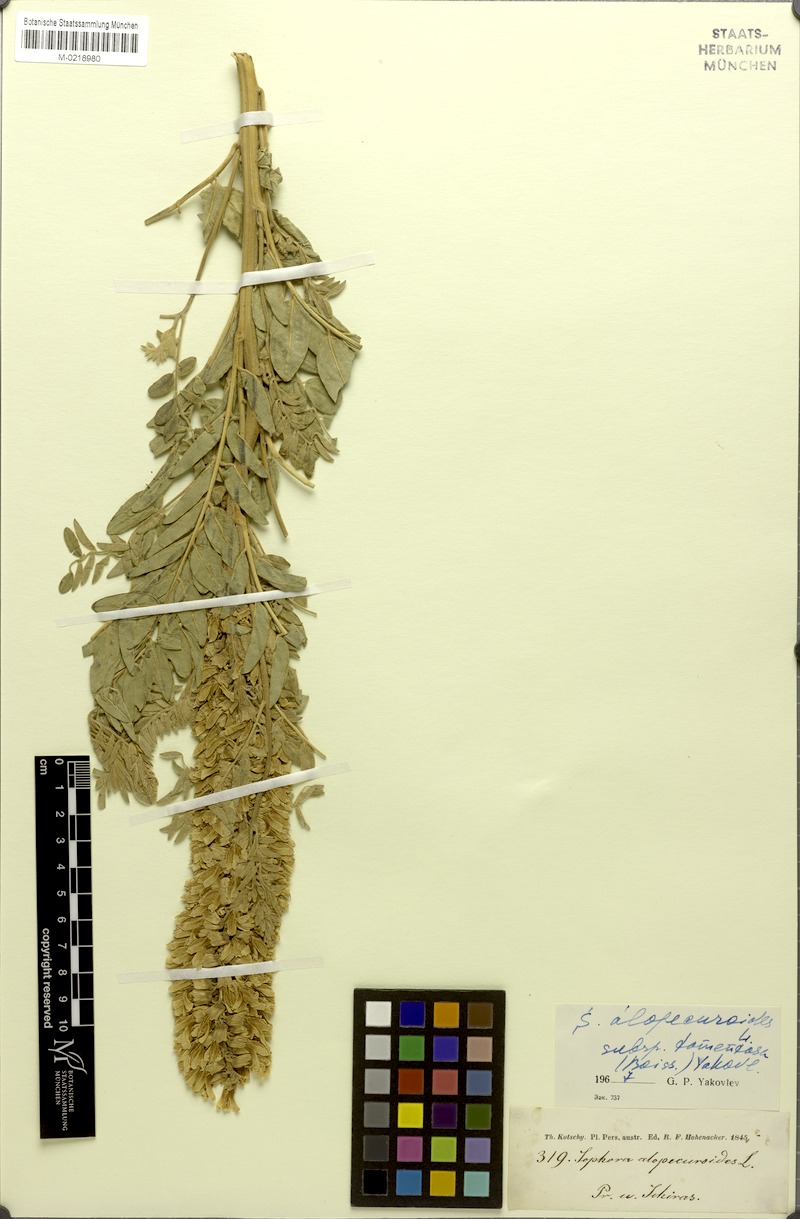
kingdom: Plantae
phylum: Tracheophyta
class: Magnoliopsida
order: Fabales
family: Fabaceae
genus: Sophora
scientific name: Sophora alopecuroides
